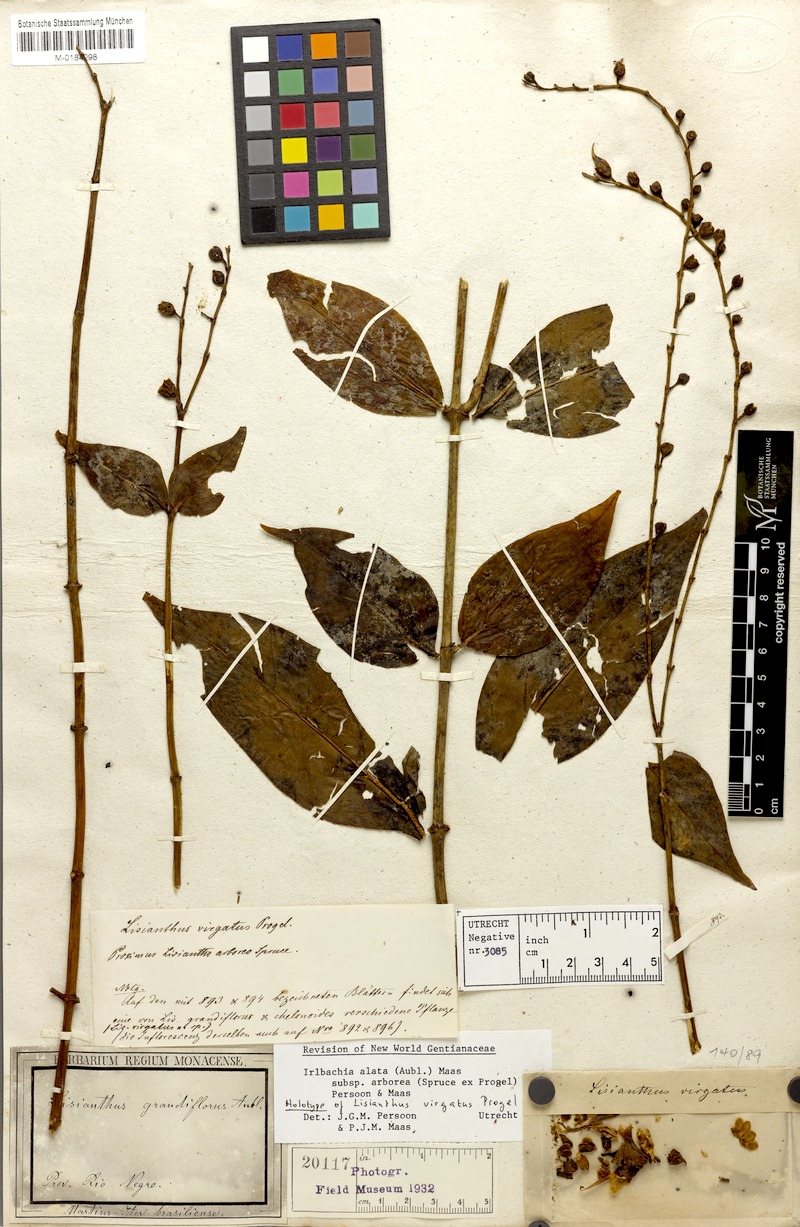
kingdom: Plantae
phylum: Tracheophyta
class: Magnoliopsida
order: Gentianales
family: Gentianaceae
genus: Adenolisianthus
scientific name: Adenolisianthus arboreus
